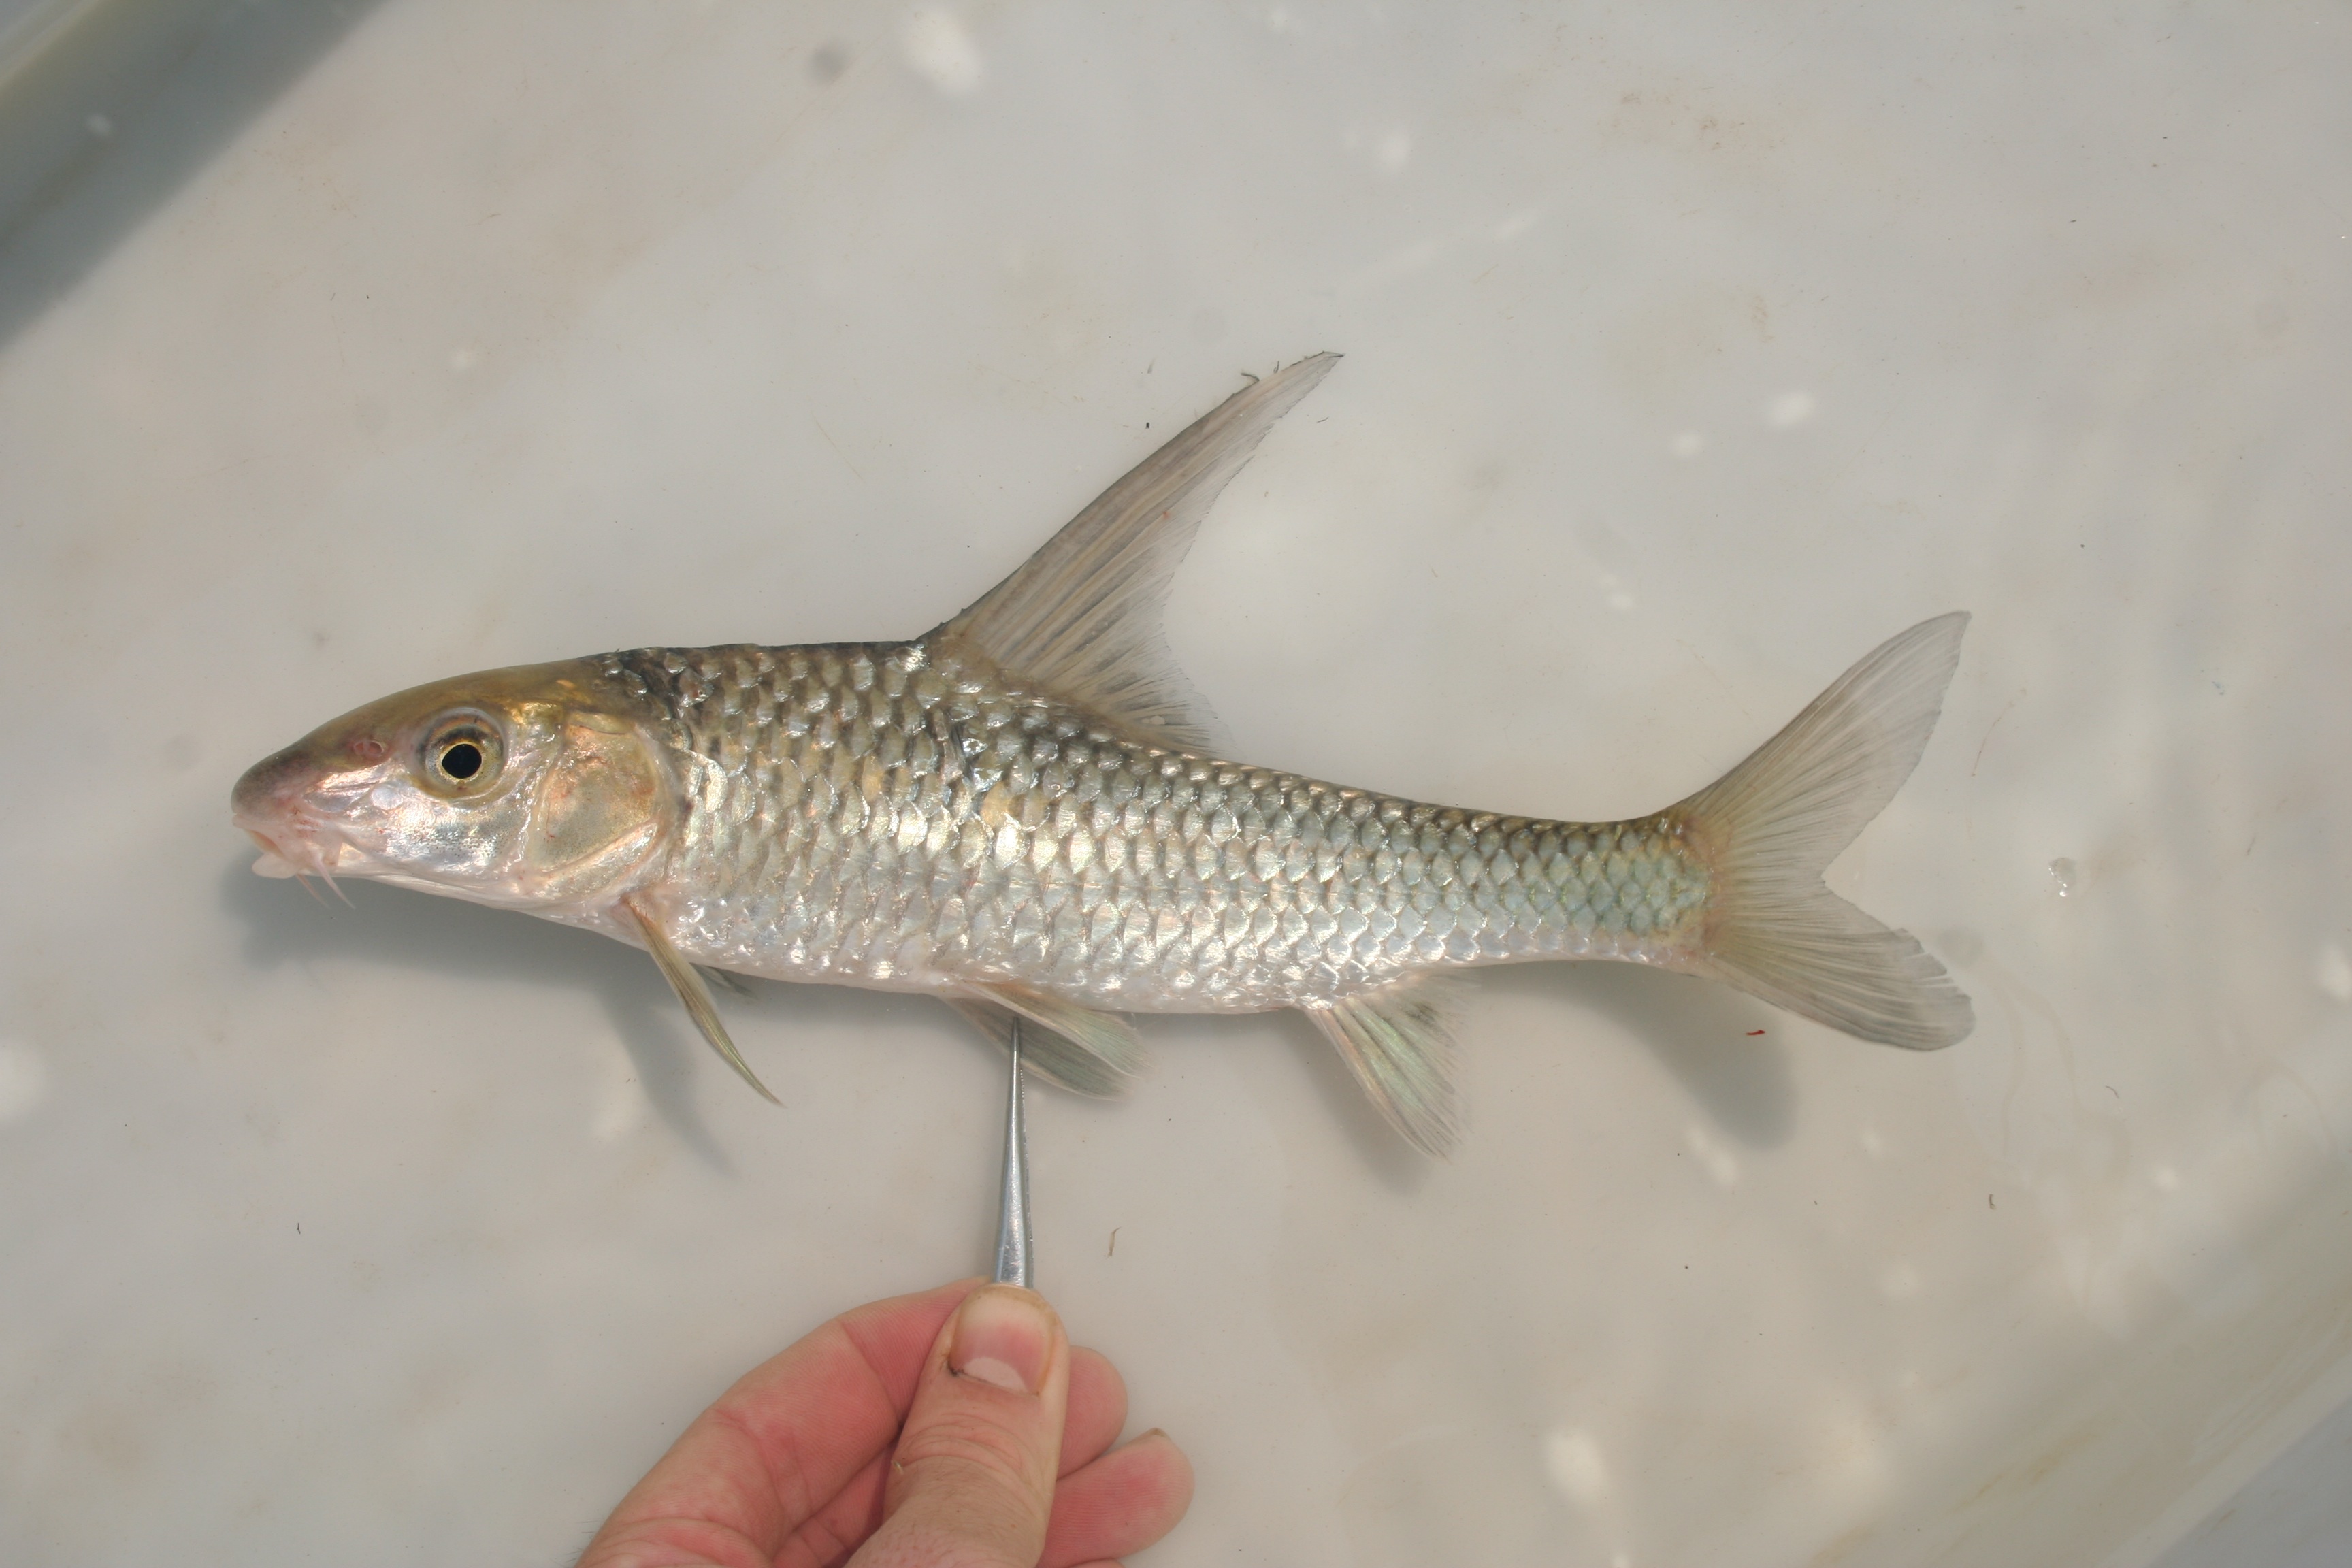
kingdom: Animalia
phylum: Chordata
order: Cypriniformes
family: Cyprinidae
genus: Labeobarbus
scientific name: Labeobarbus
